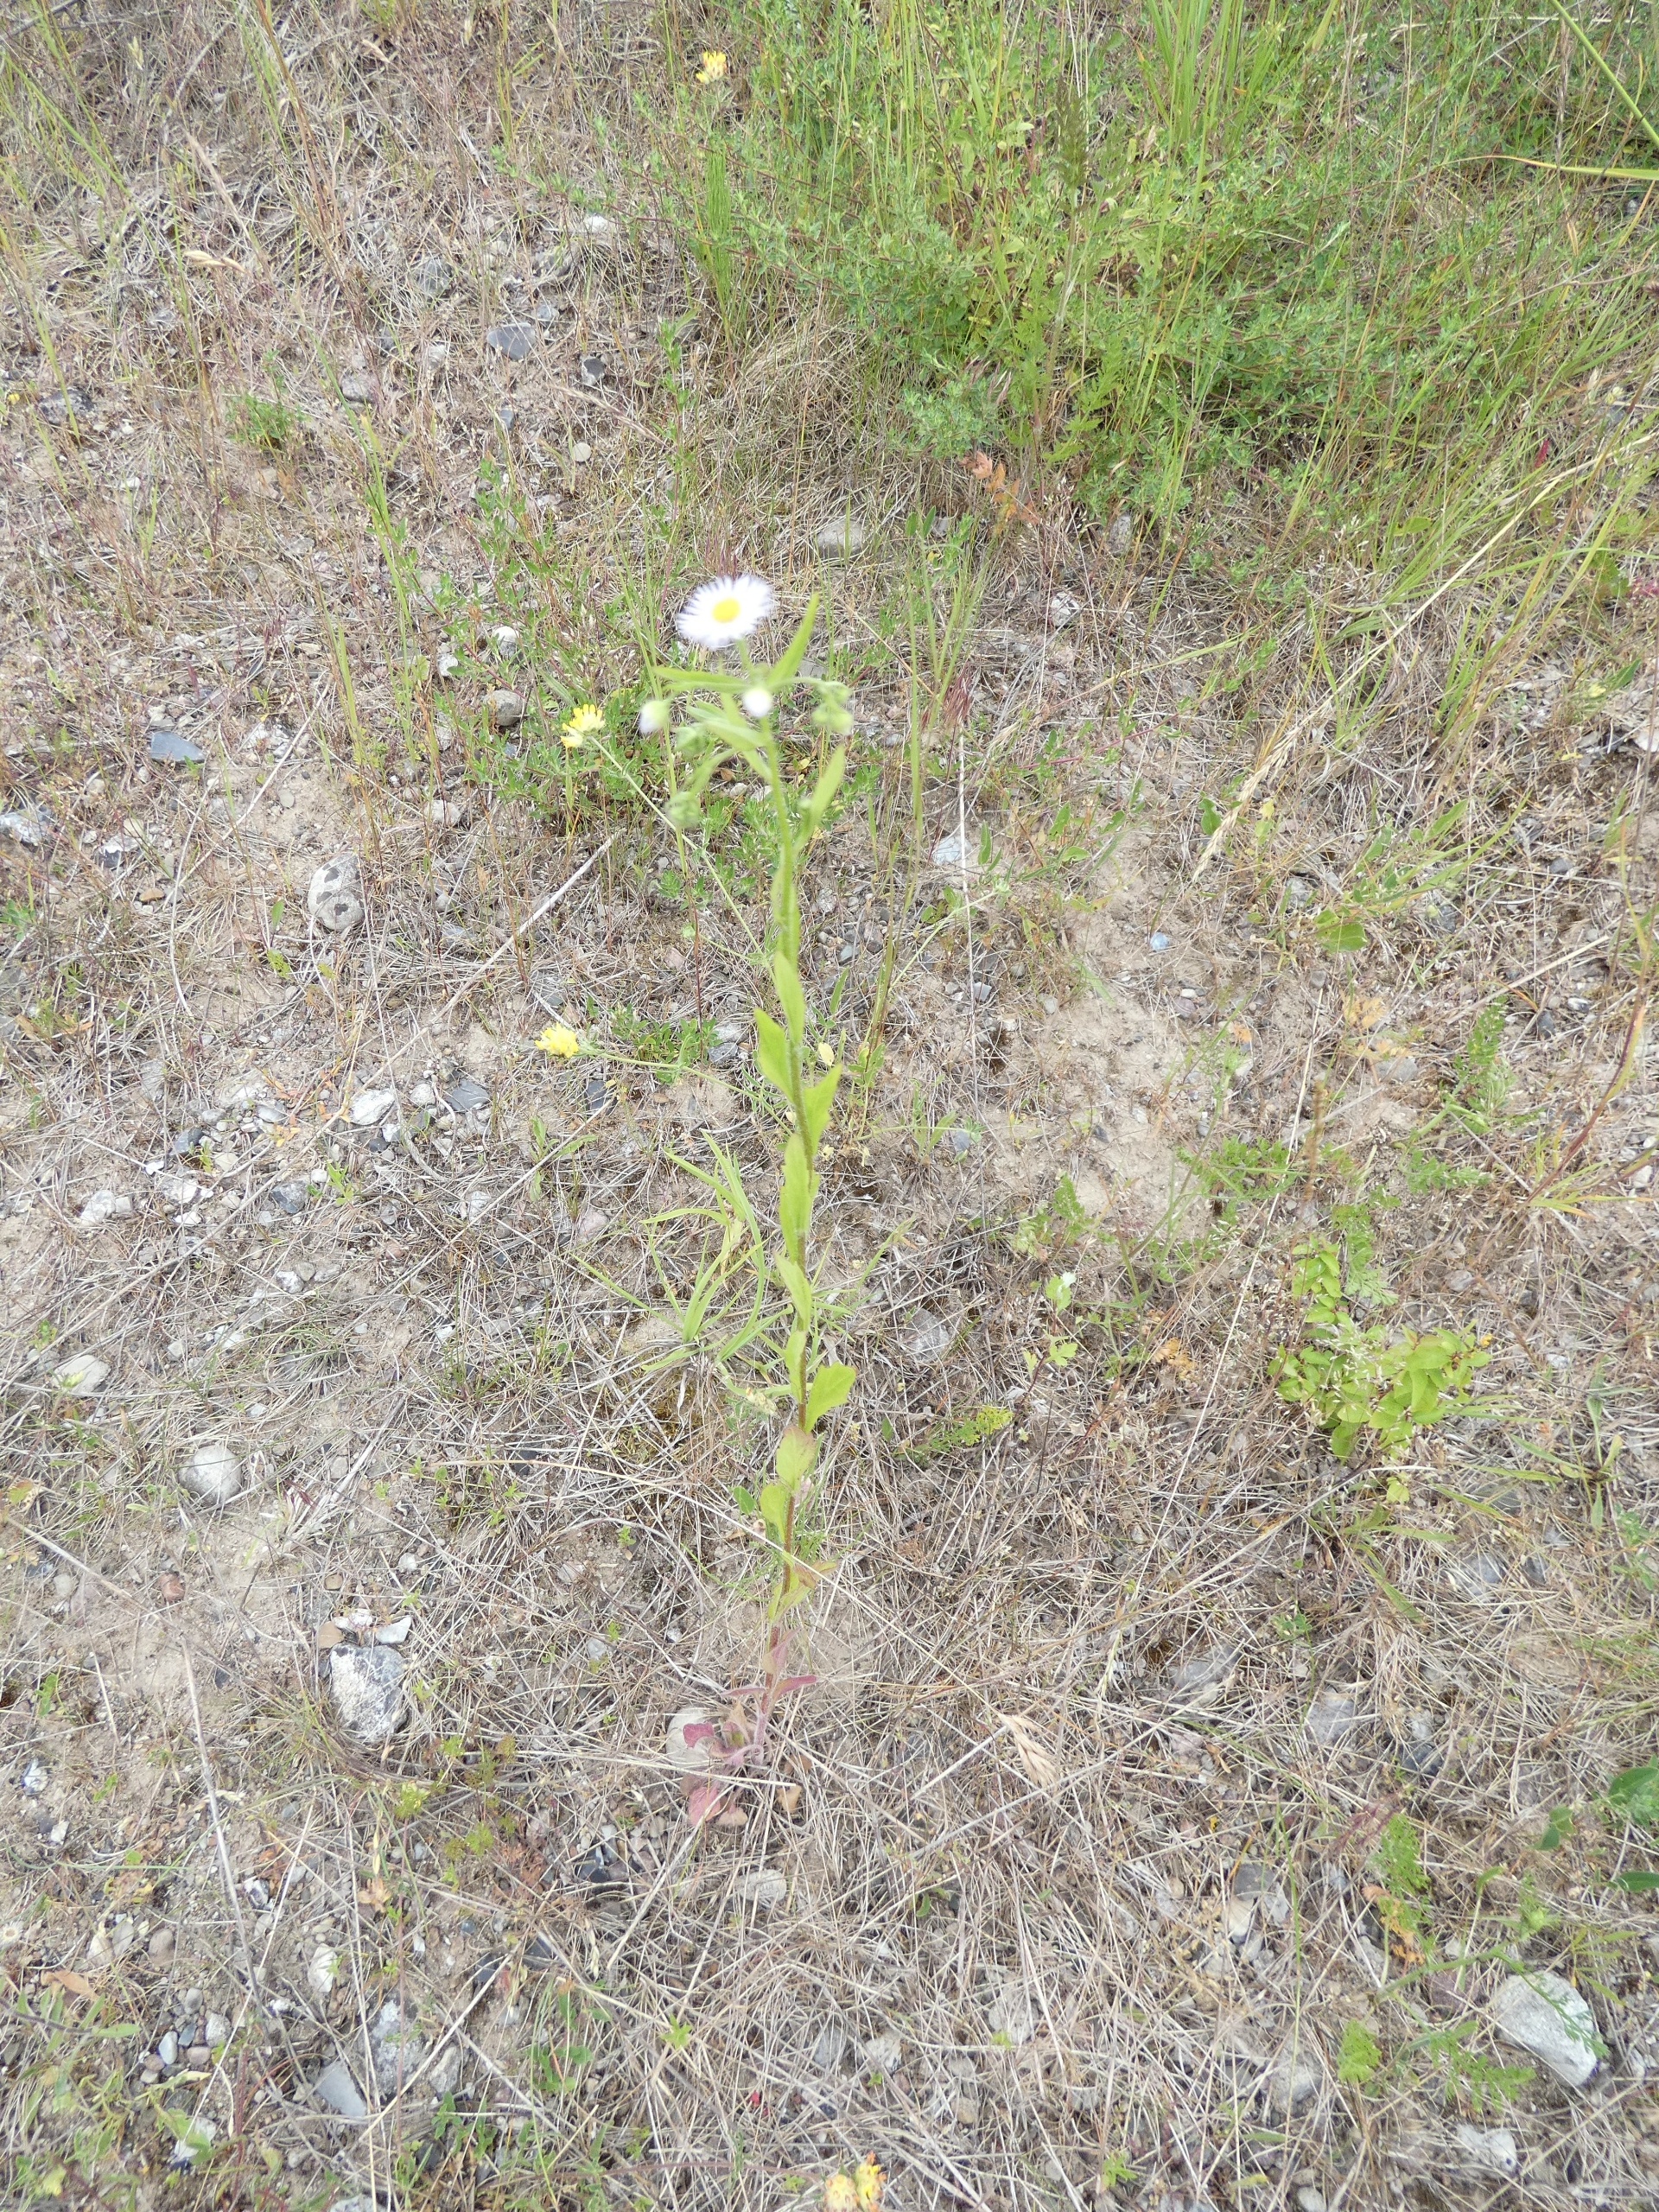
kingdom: Plantae
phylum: Tracheophyta
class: Magnoliopsida
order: Asterales
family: Asteraceae
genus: Erigeron
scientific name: Erigeron annuus
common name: Smalstråle
